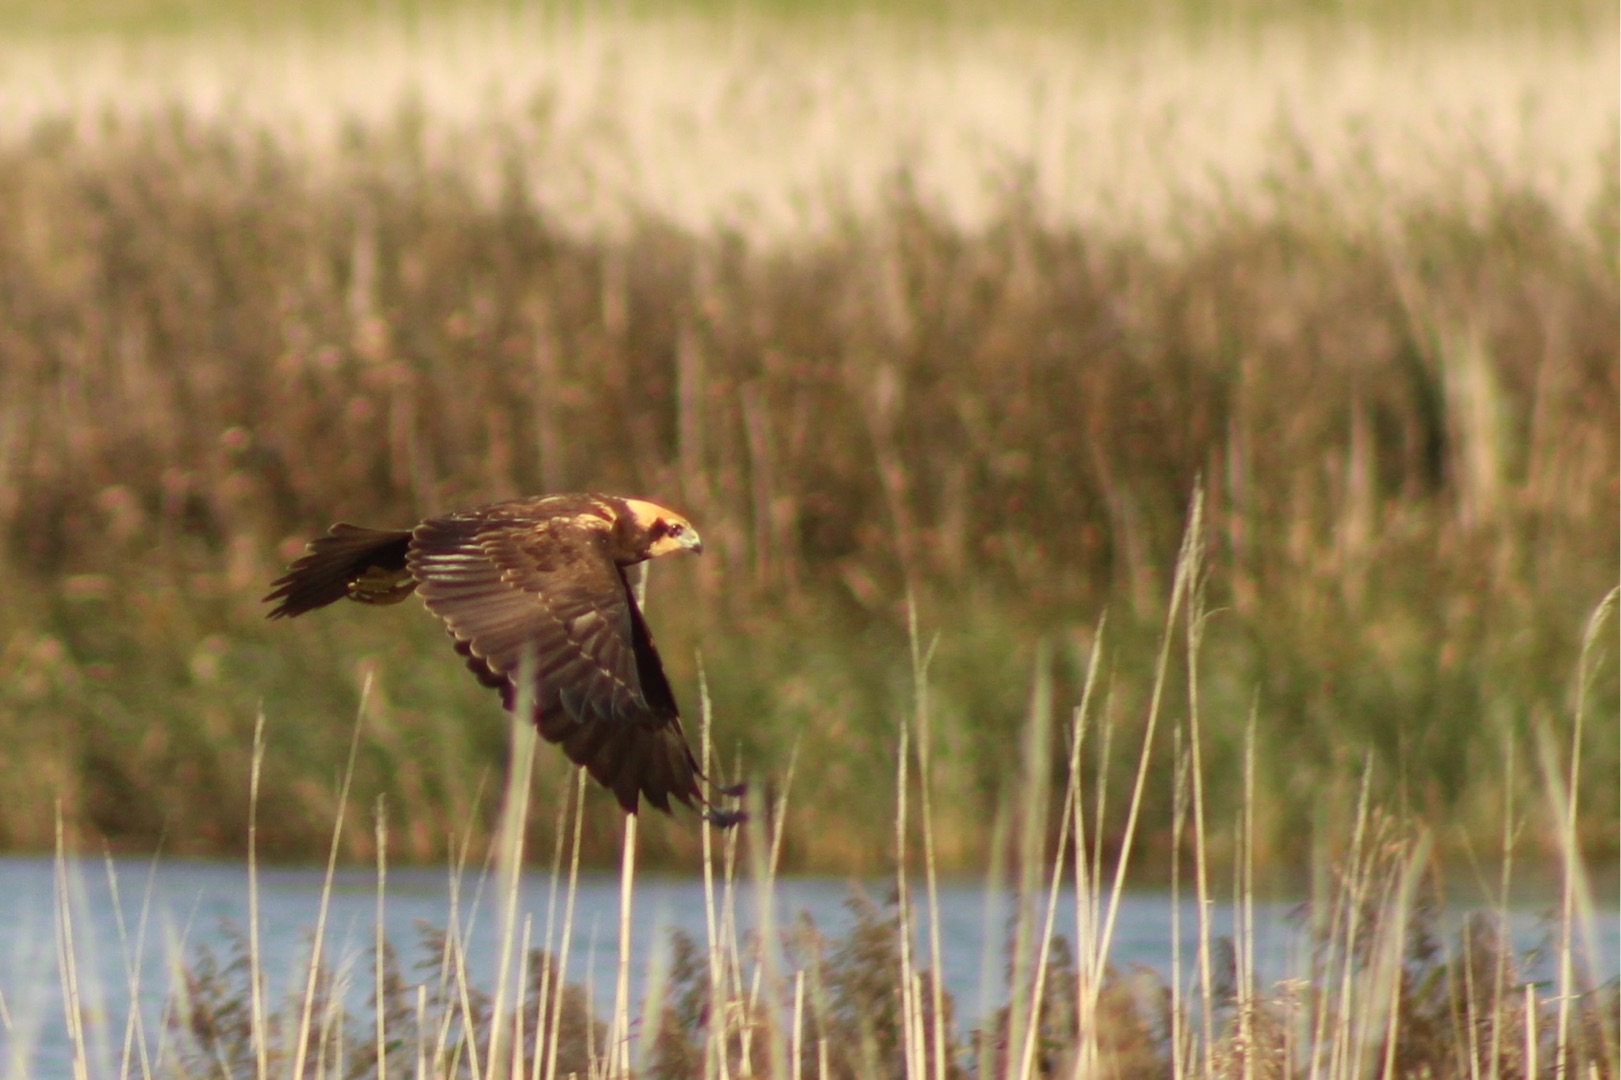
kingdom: Animalia
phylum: Chordata
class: Aves
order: Accipitriformes
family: Accipitridae
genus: Circus
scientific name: Circus aeruginosus
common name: Rørhøg
